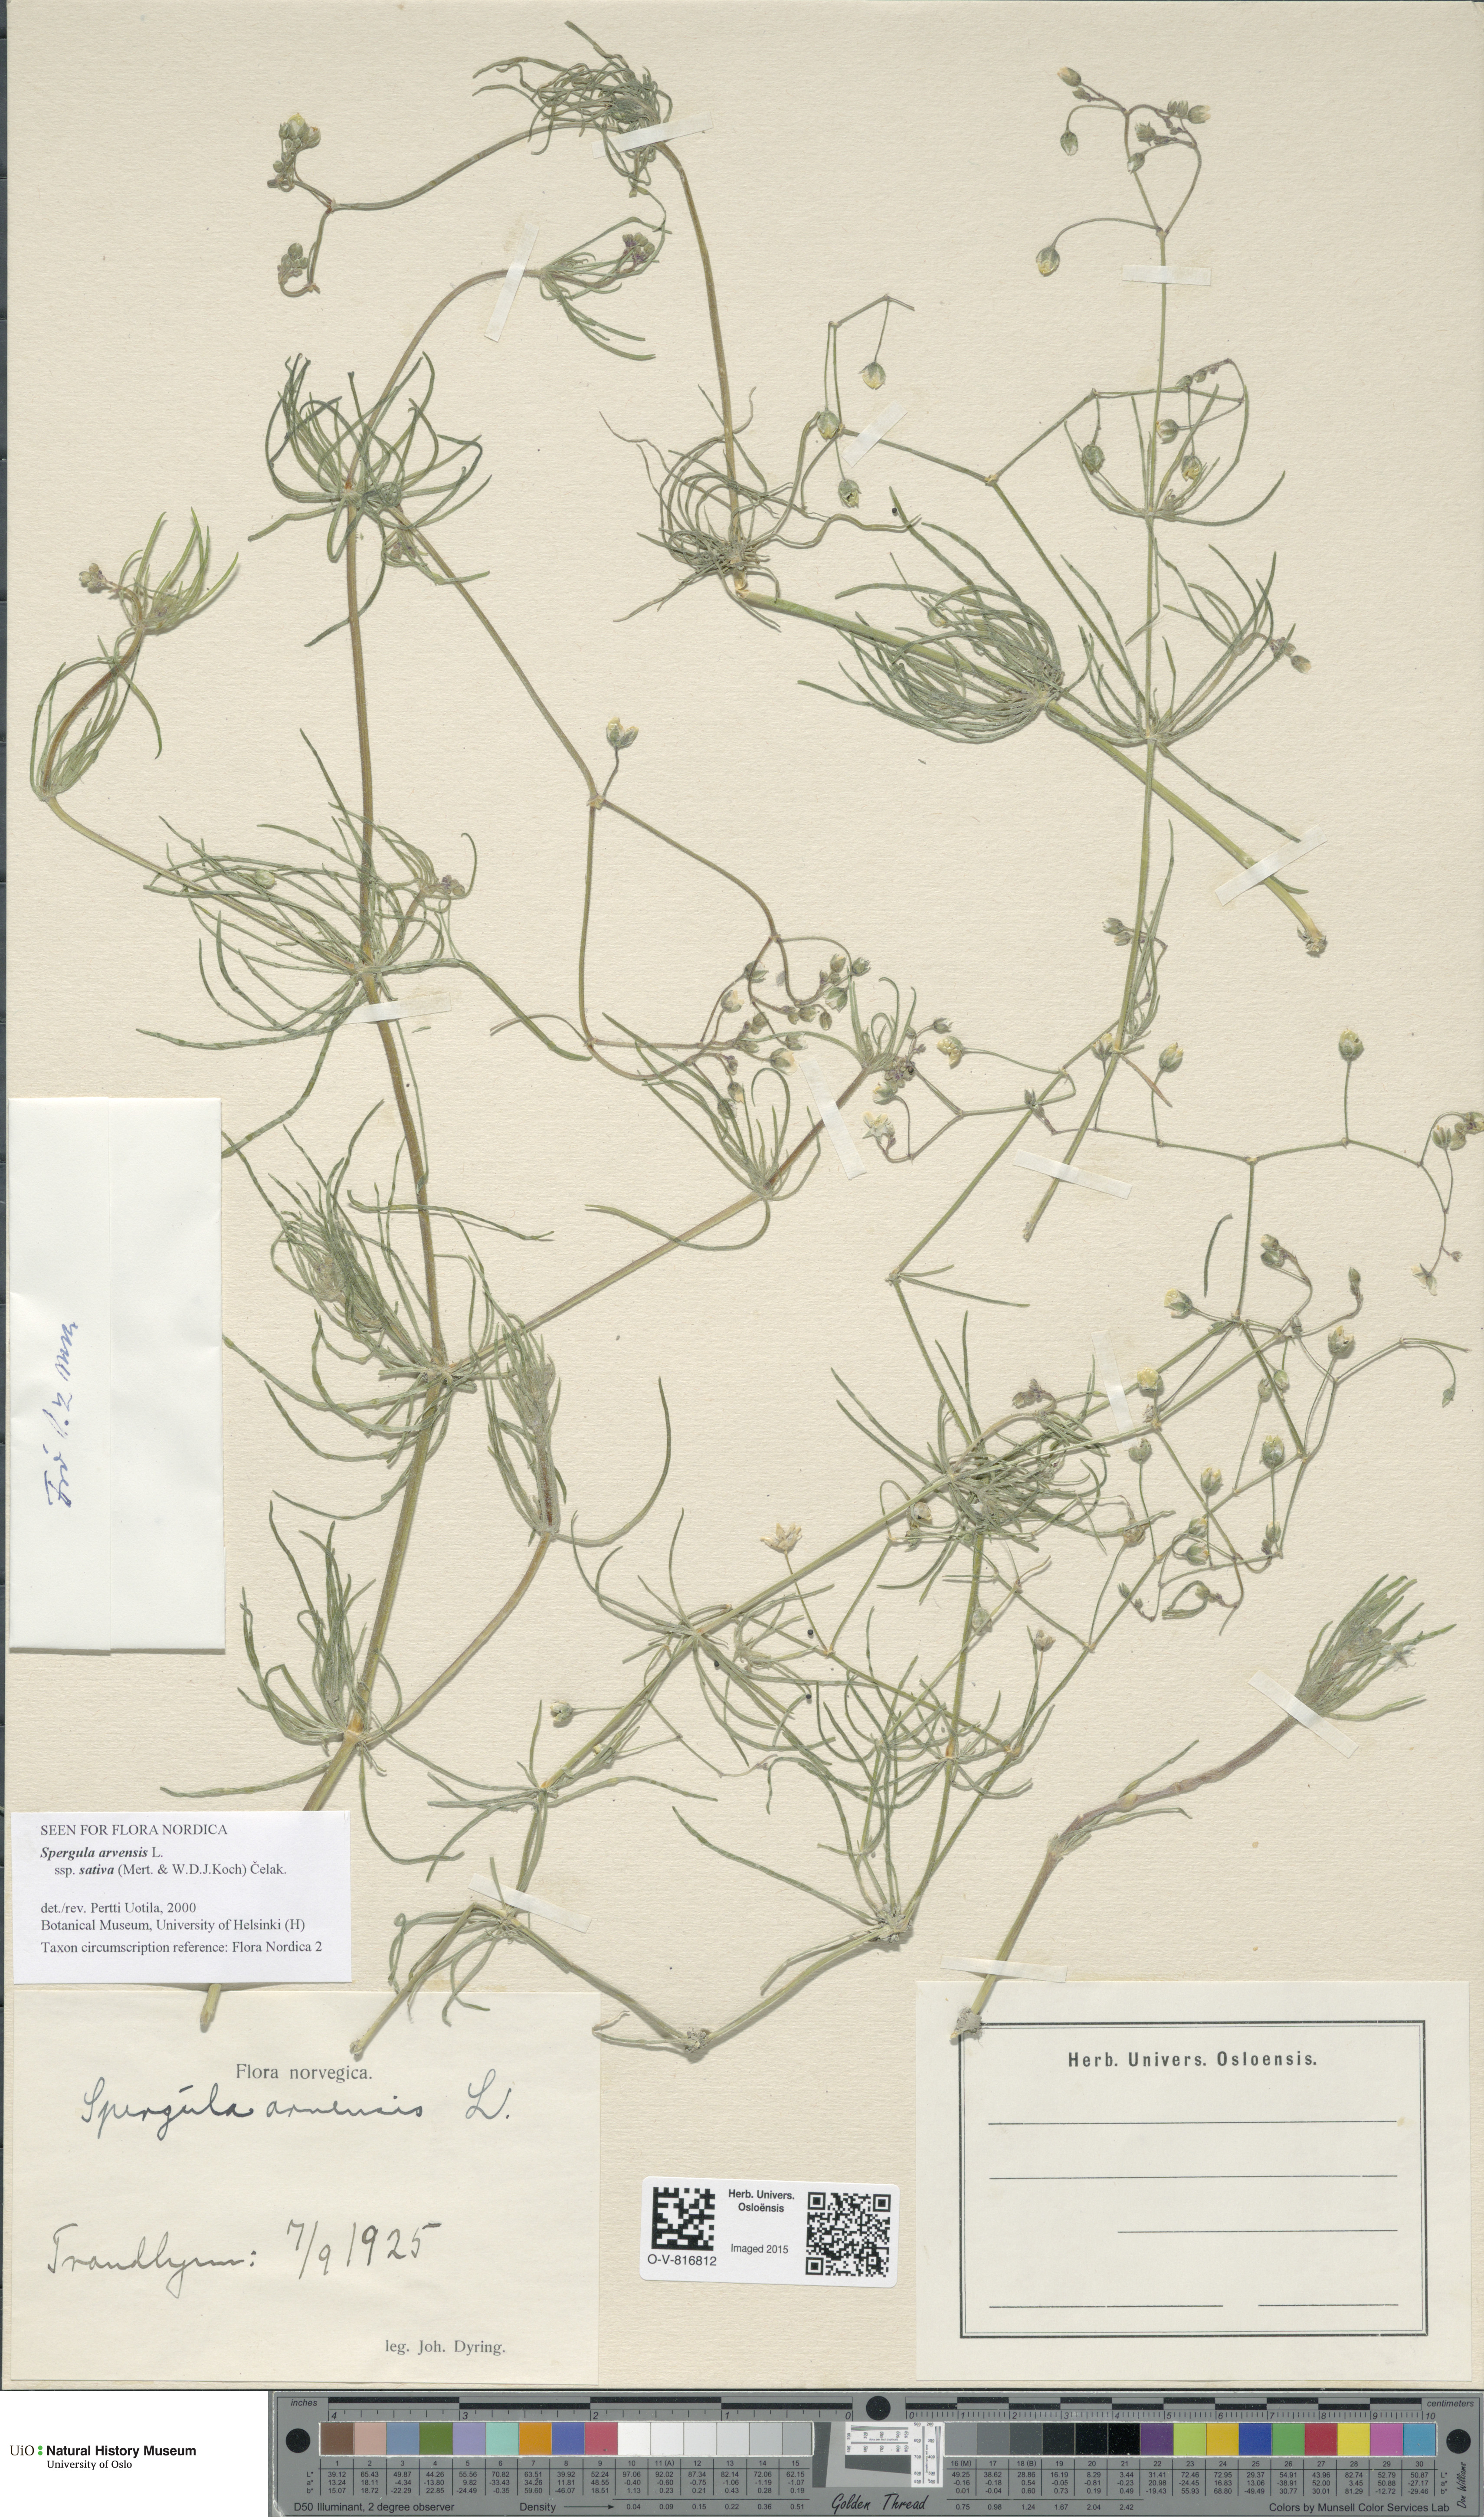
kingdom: Plantae
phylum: Tracheophyta
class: Magnoliopsida
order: Caryophyllales
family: Caryophyllaceae
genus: Spergula
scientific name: Spergula arvensis
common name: Corn spurrey
